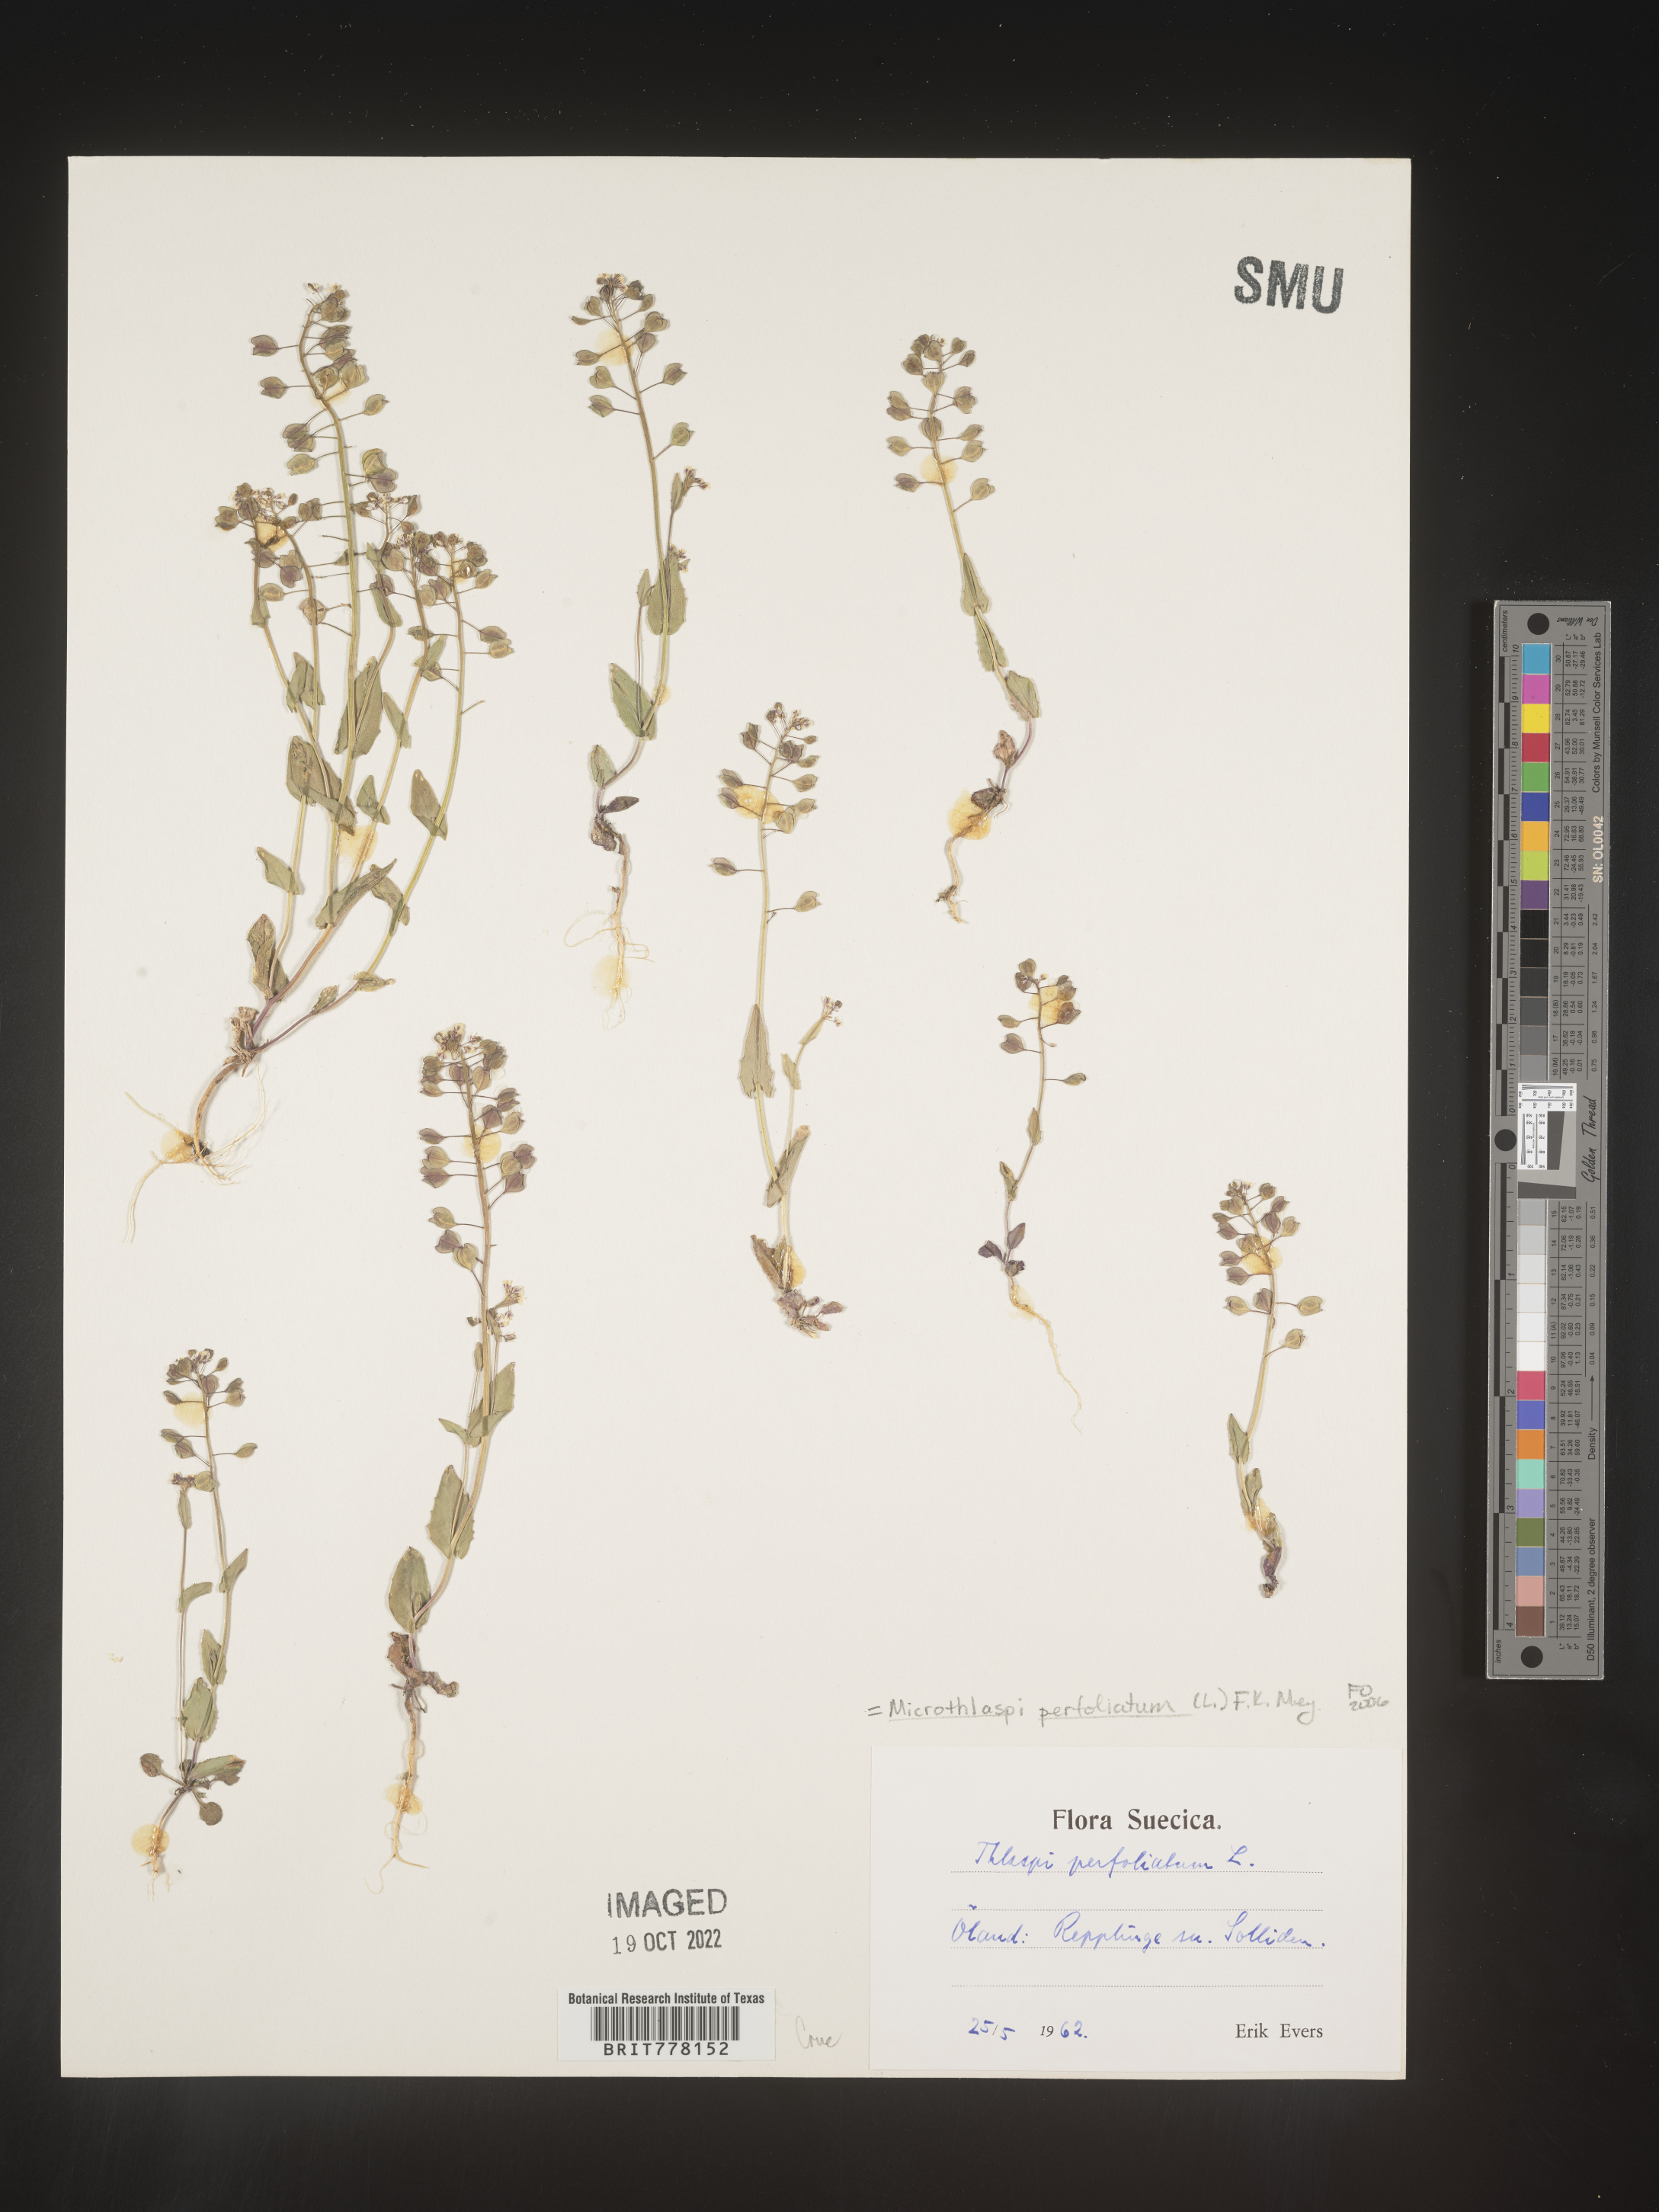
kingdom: Plantae
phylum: Tracheophyta
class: Magnoliopsida
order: Brassicales
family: Brassicaceae
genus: Noccaea
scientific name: Noccaea
